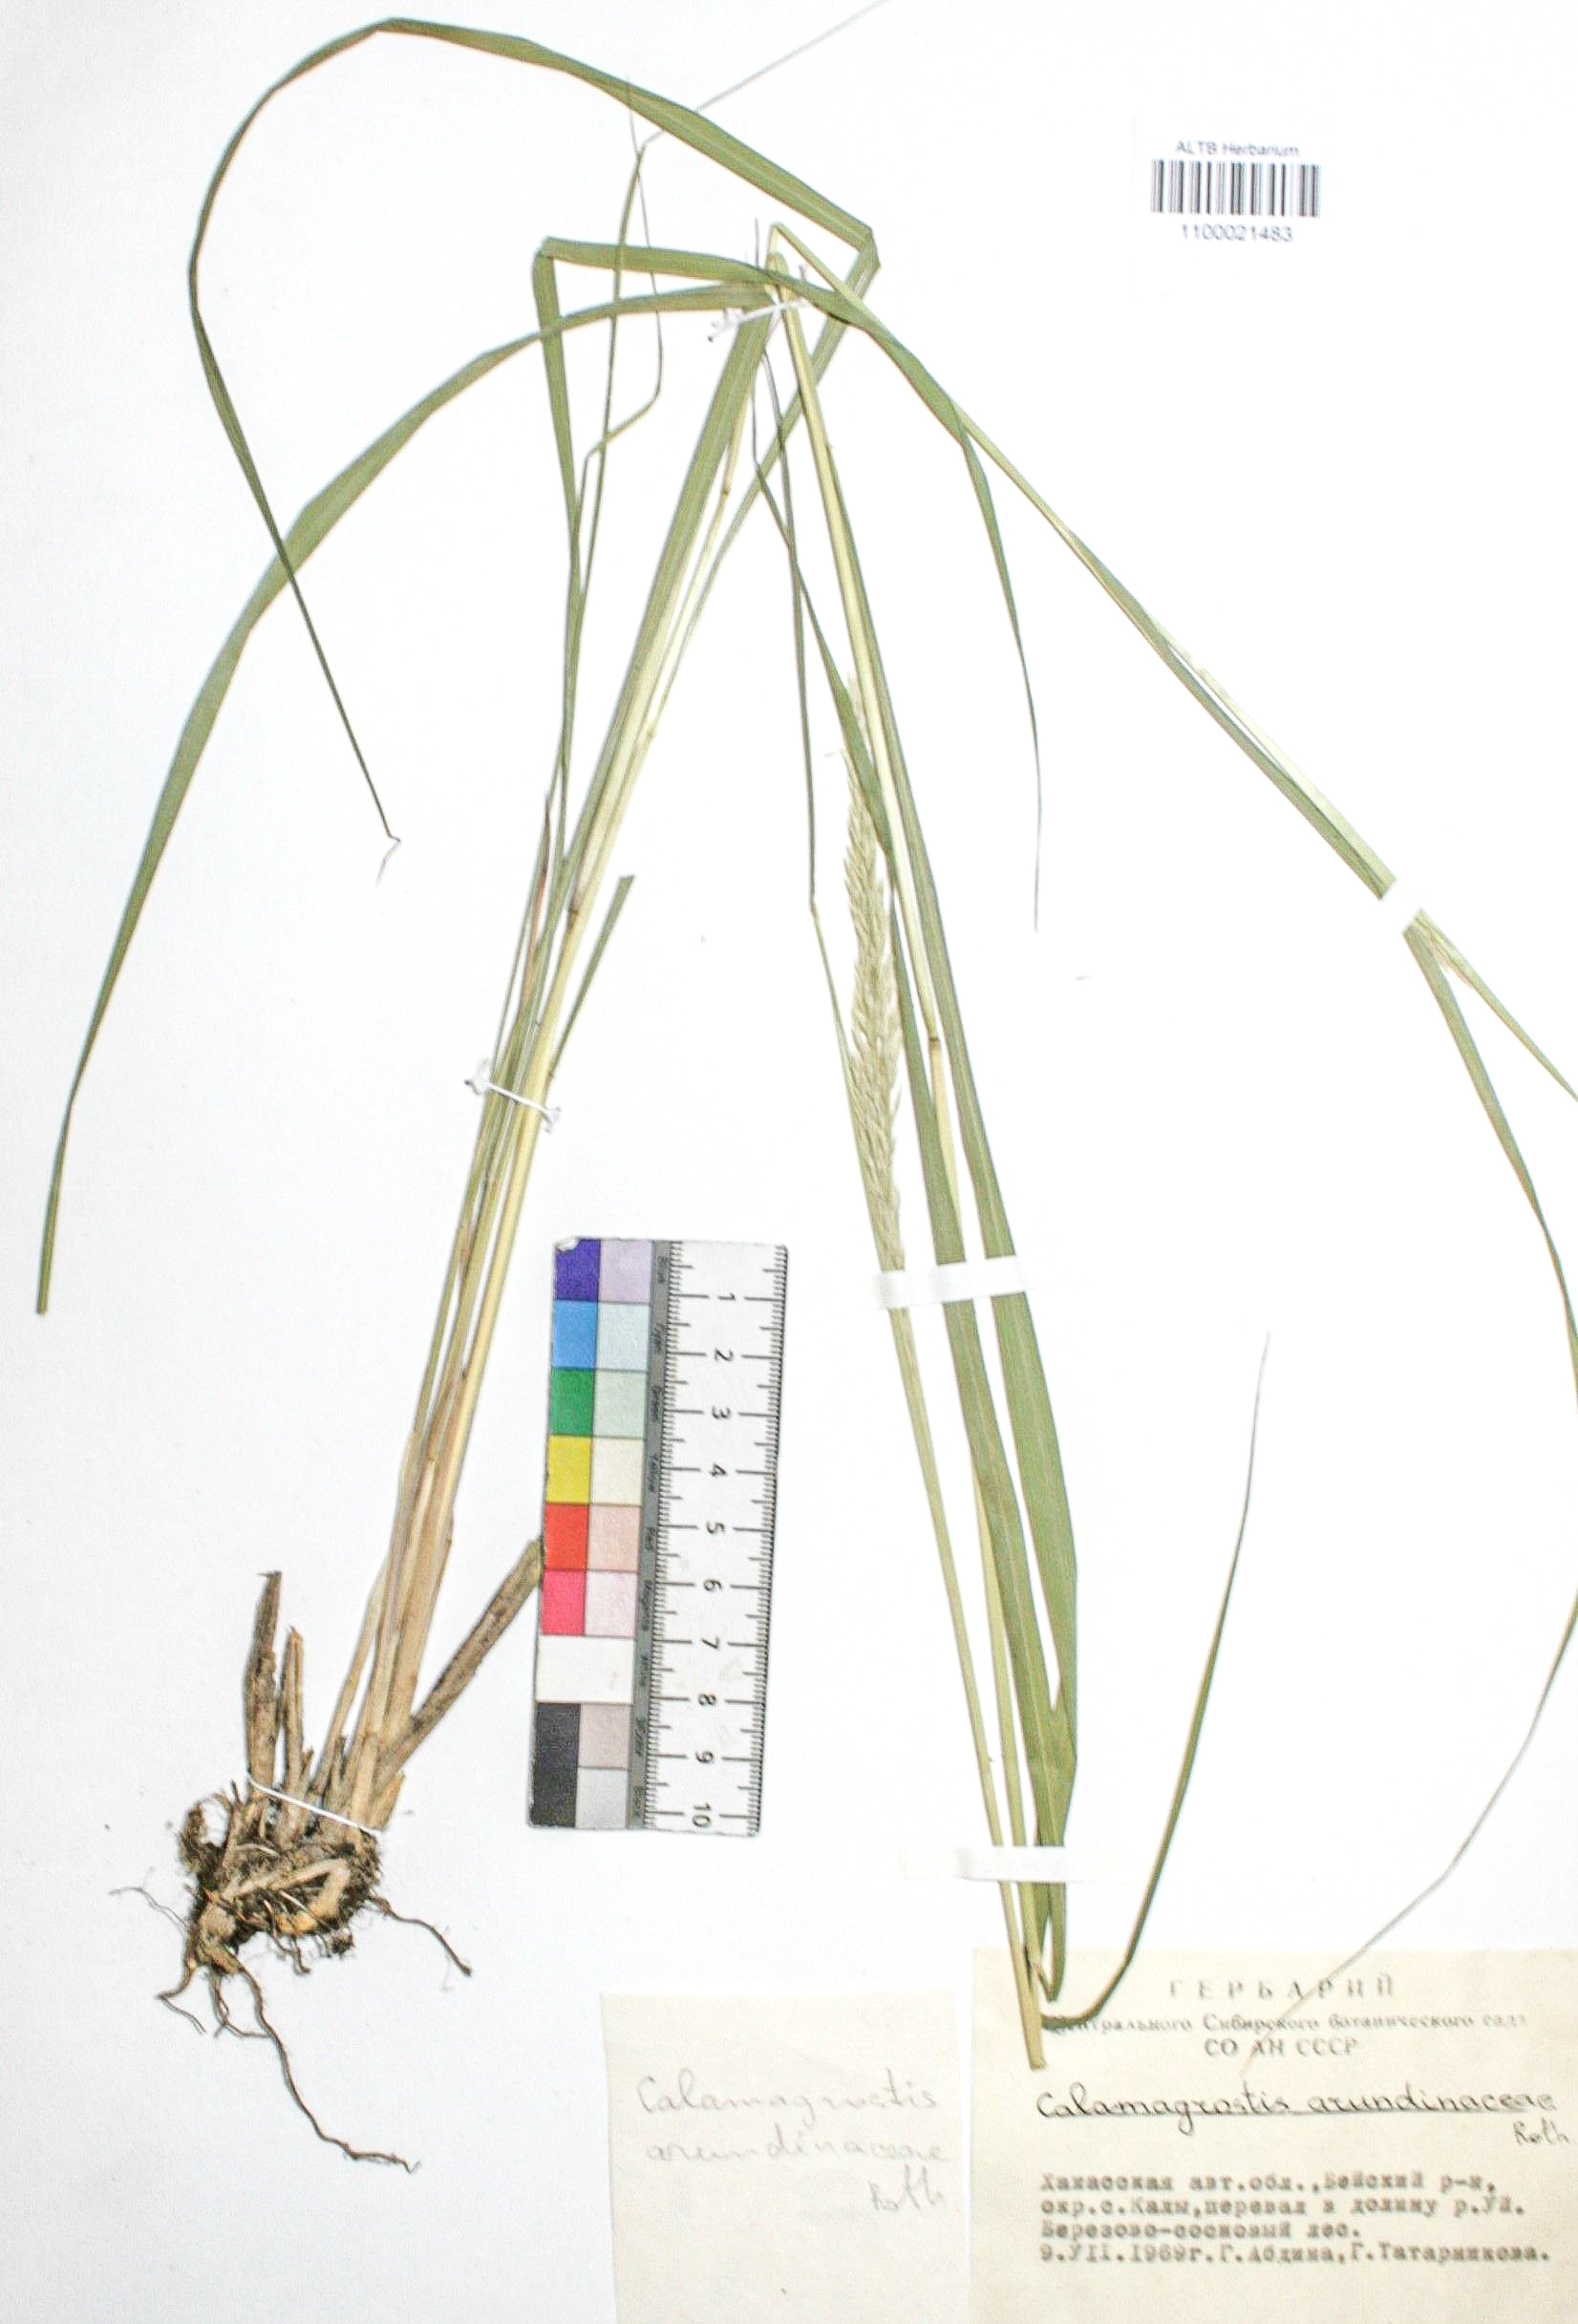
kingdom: Plantae
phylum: Tracheophyta
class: Liliopsida
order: Poales
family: Poaceae
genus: Calamagrostis
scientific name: Calamagrostis arundinacea
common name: Metskastik
